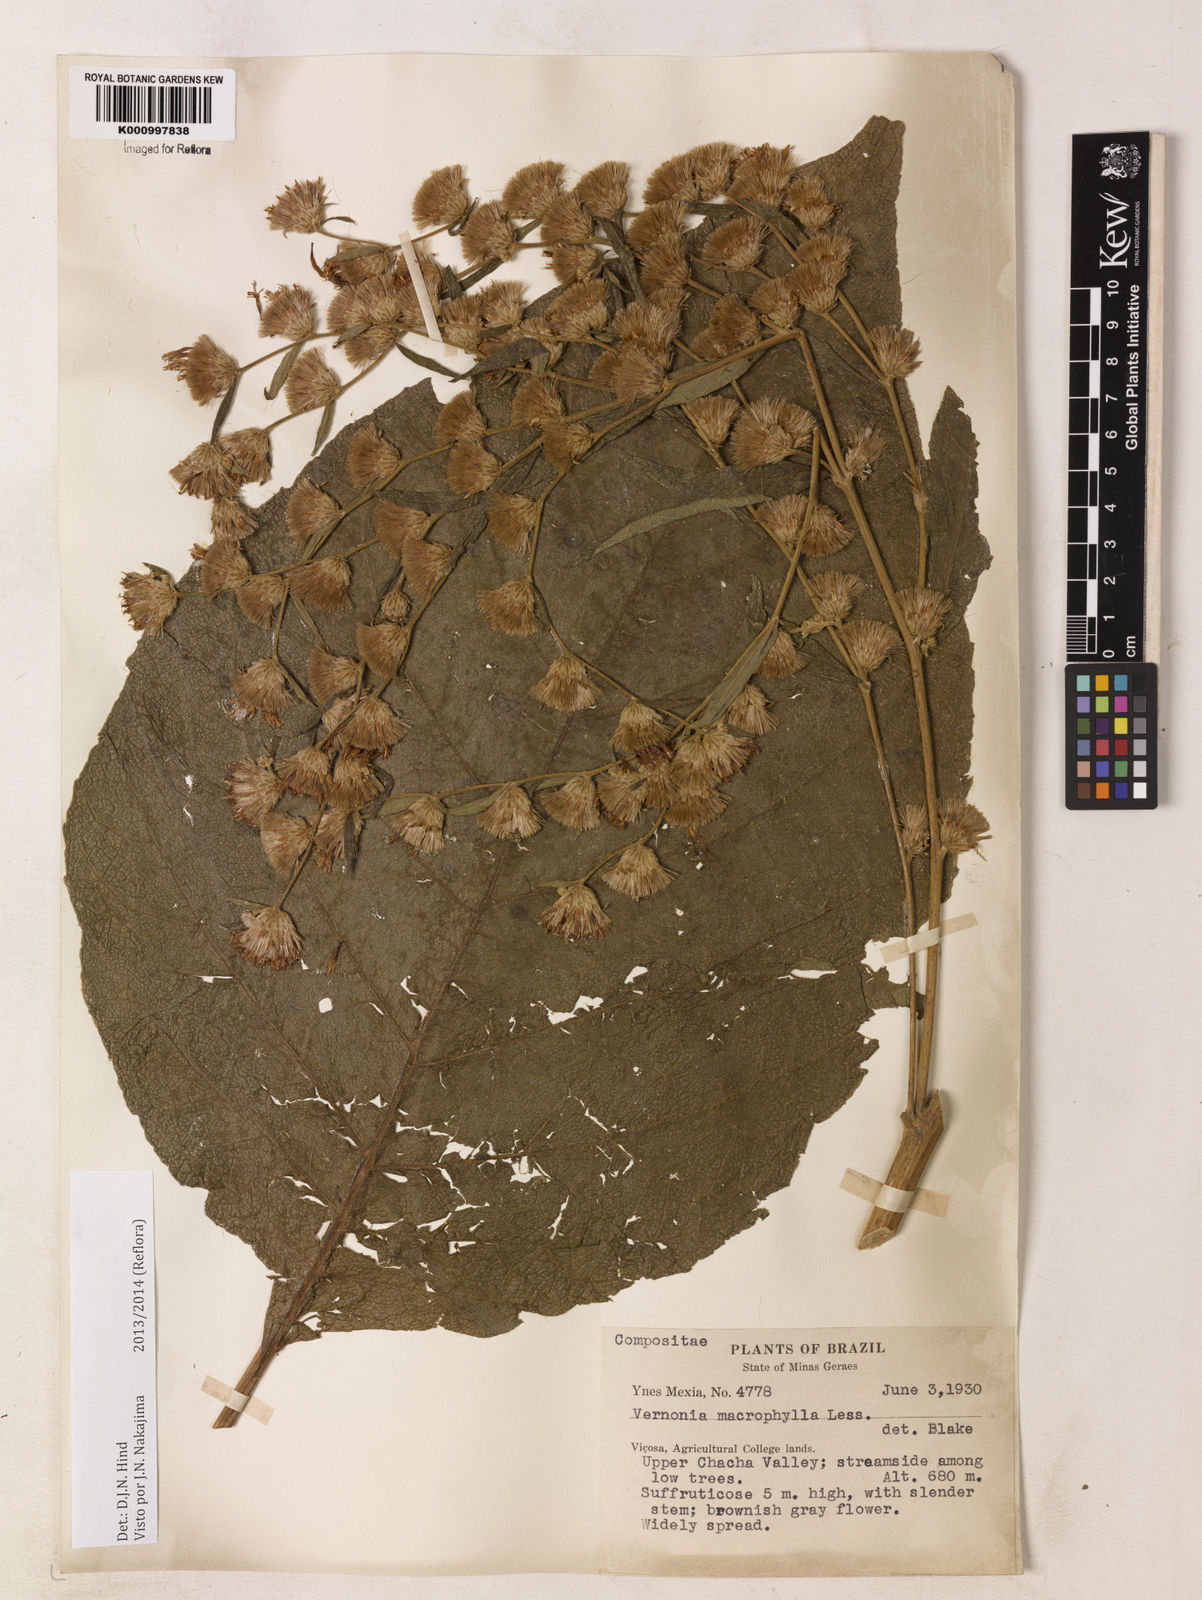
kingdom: Plantae
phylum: Tracheophyta
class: Magnoliopsida
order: Asterales
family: Asteraceae
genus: Lessingianthus
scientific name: Lessingianthus macrophyllus
